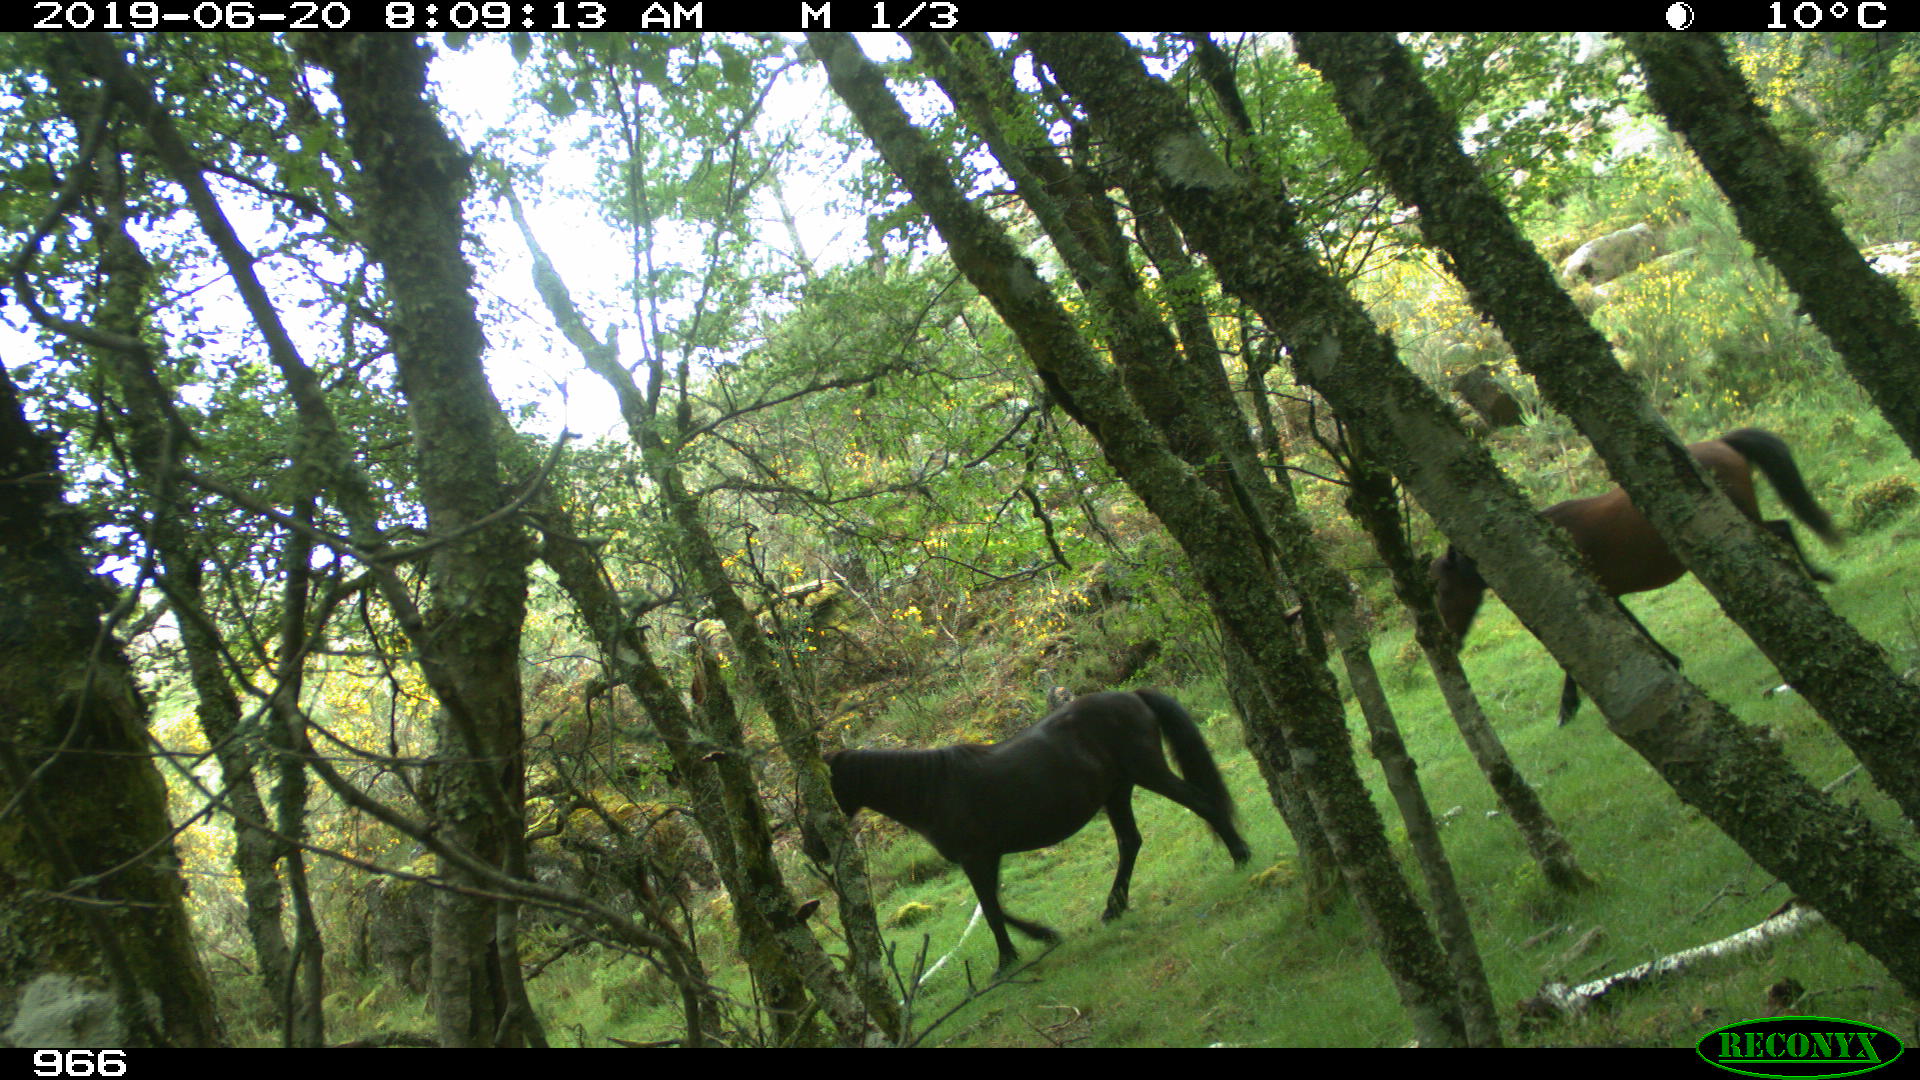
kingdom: Animalia
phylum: Chordata
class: Mammalia
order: Perissodactyla
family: Equidae
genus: Equus
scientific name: Equus caballus
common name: Horse
